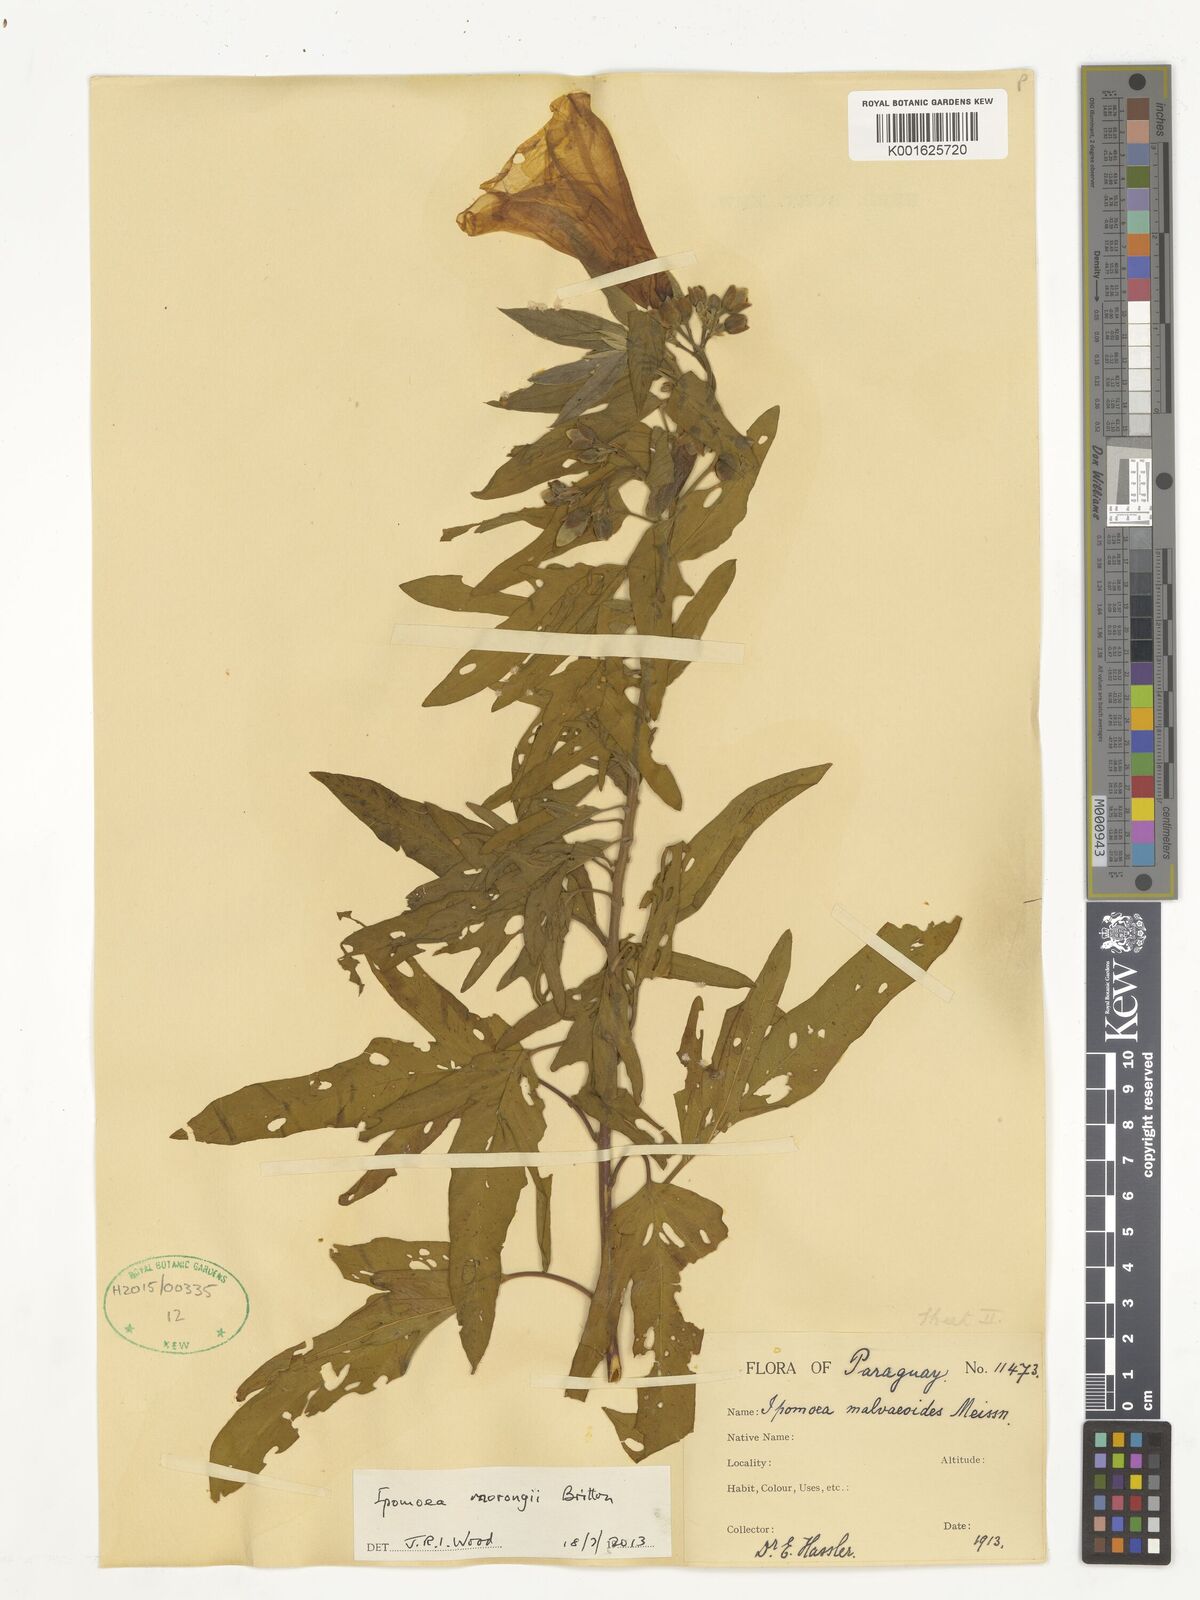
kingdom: Plantae
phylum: Tracheophyta
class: Magnoliopsida
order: Solanales
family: Convolvulaceae
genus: Ipomoea
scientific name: Ipomoea morongii
